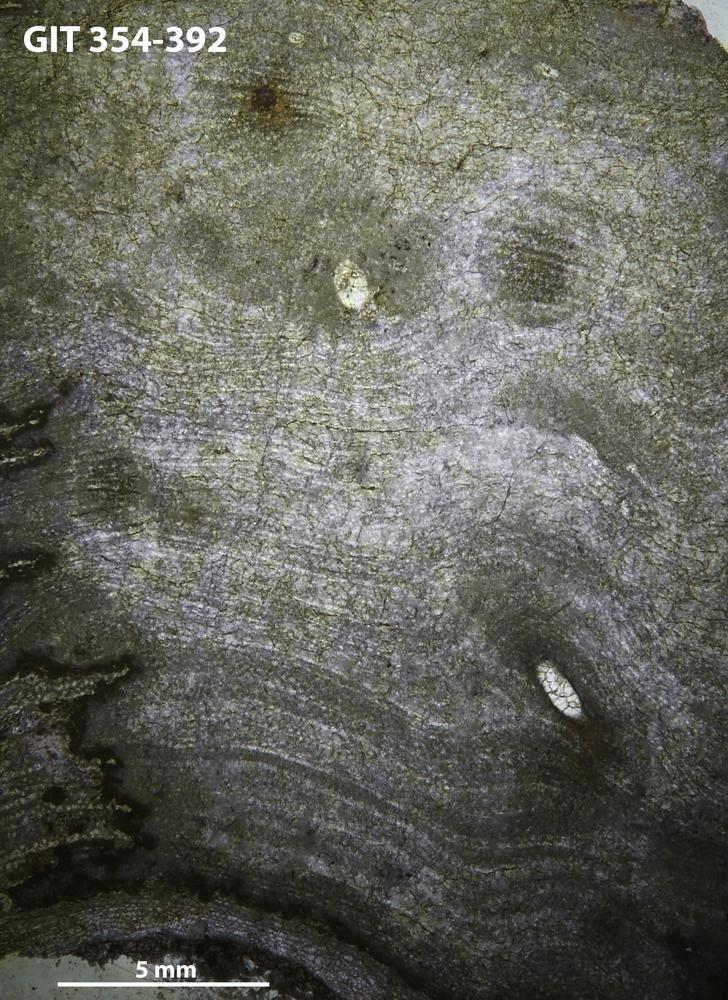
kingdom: Animalia
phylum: Porifera
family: Ecclimadictyidae
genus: Ecclimadictyon
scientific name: Ecclimadictyon Clathrodictyon microvesiculosum
